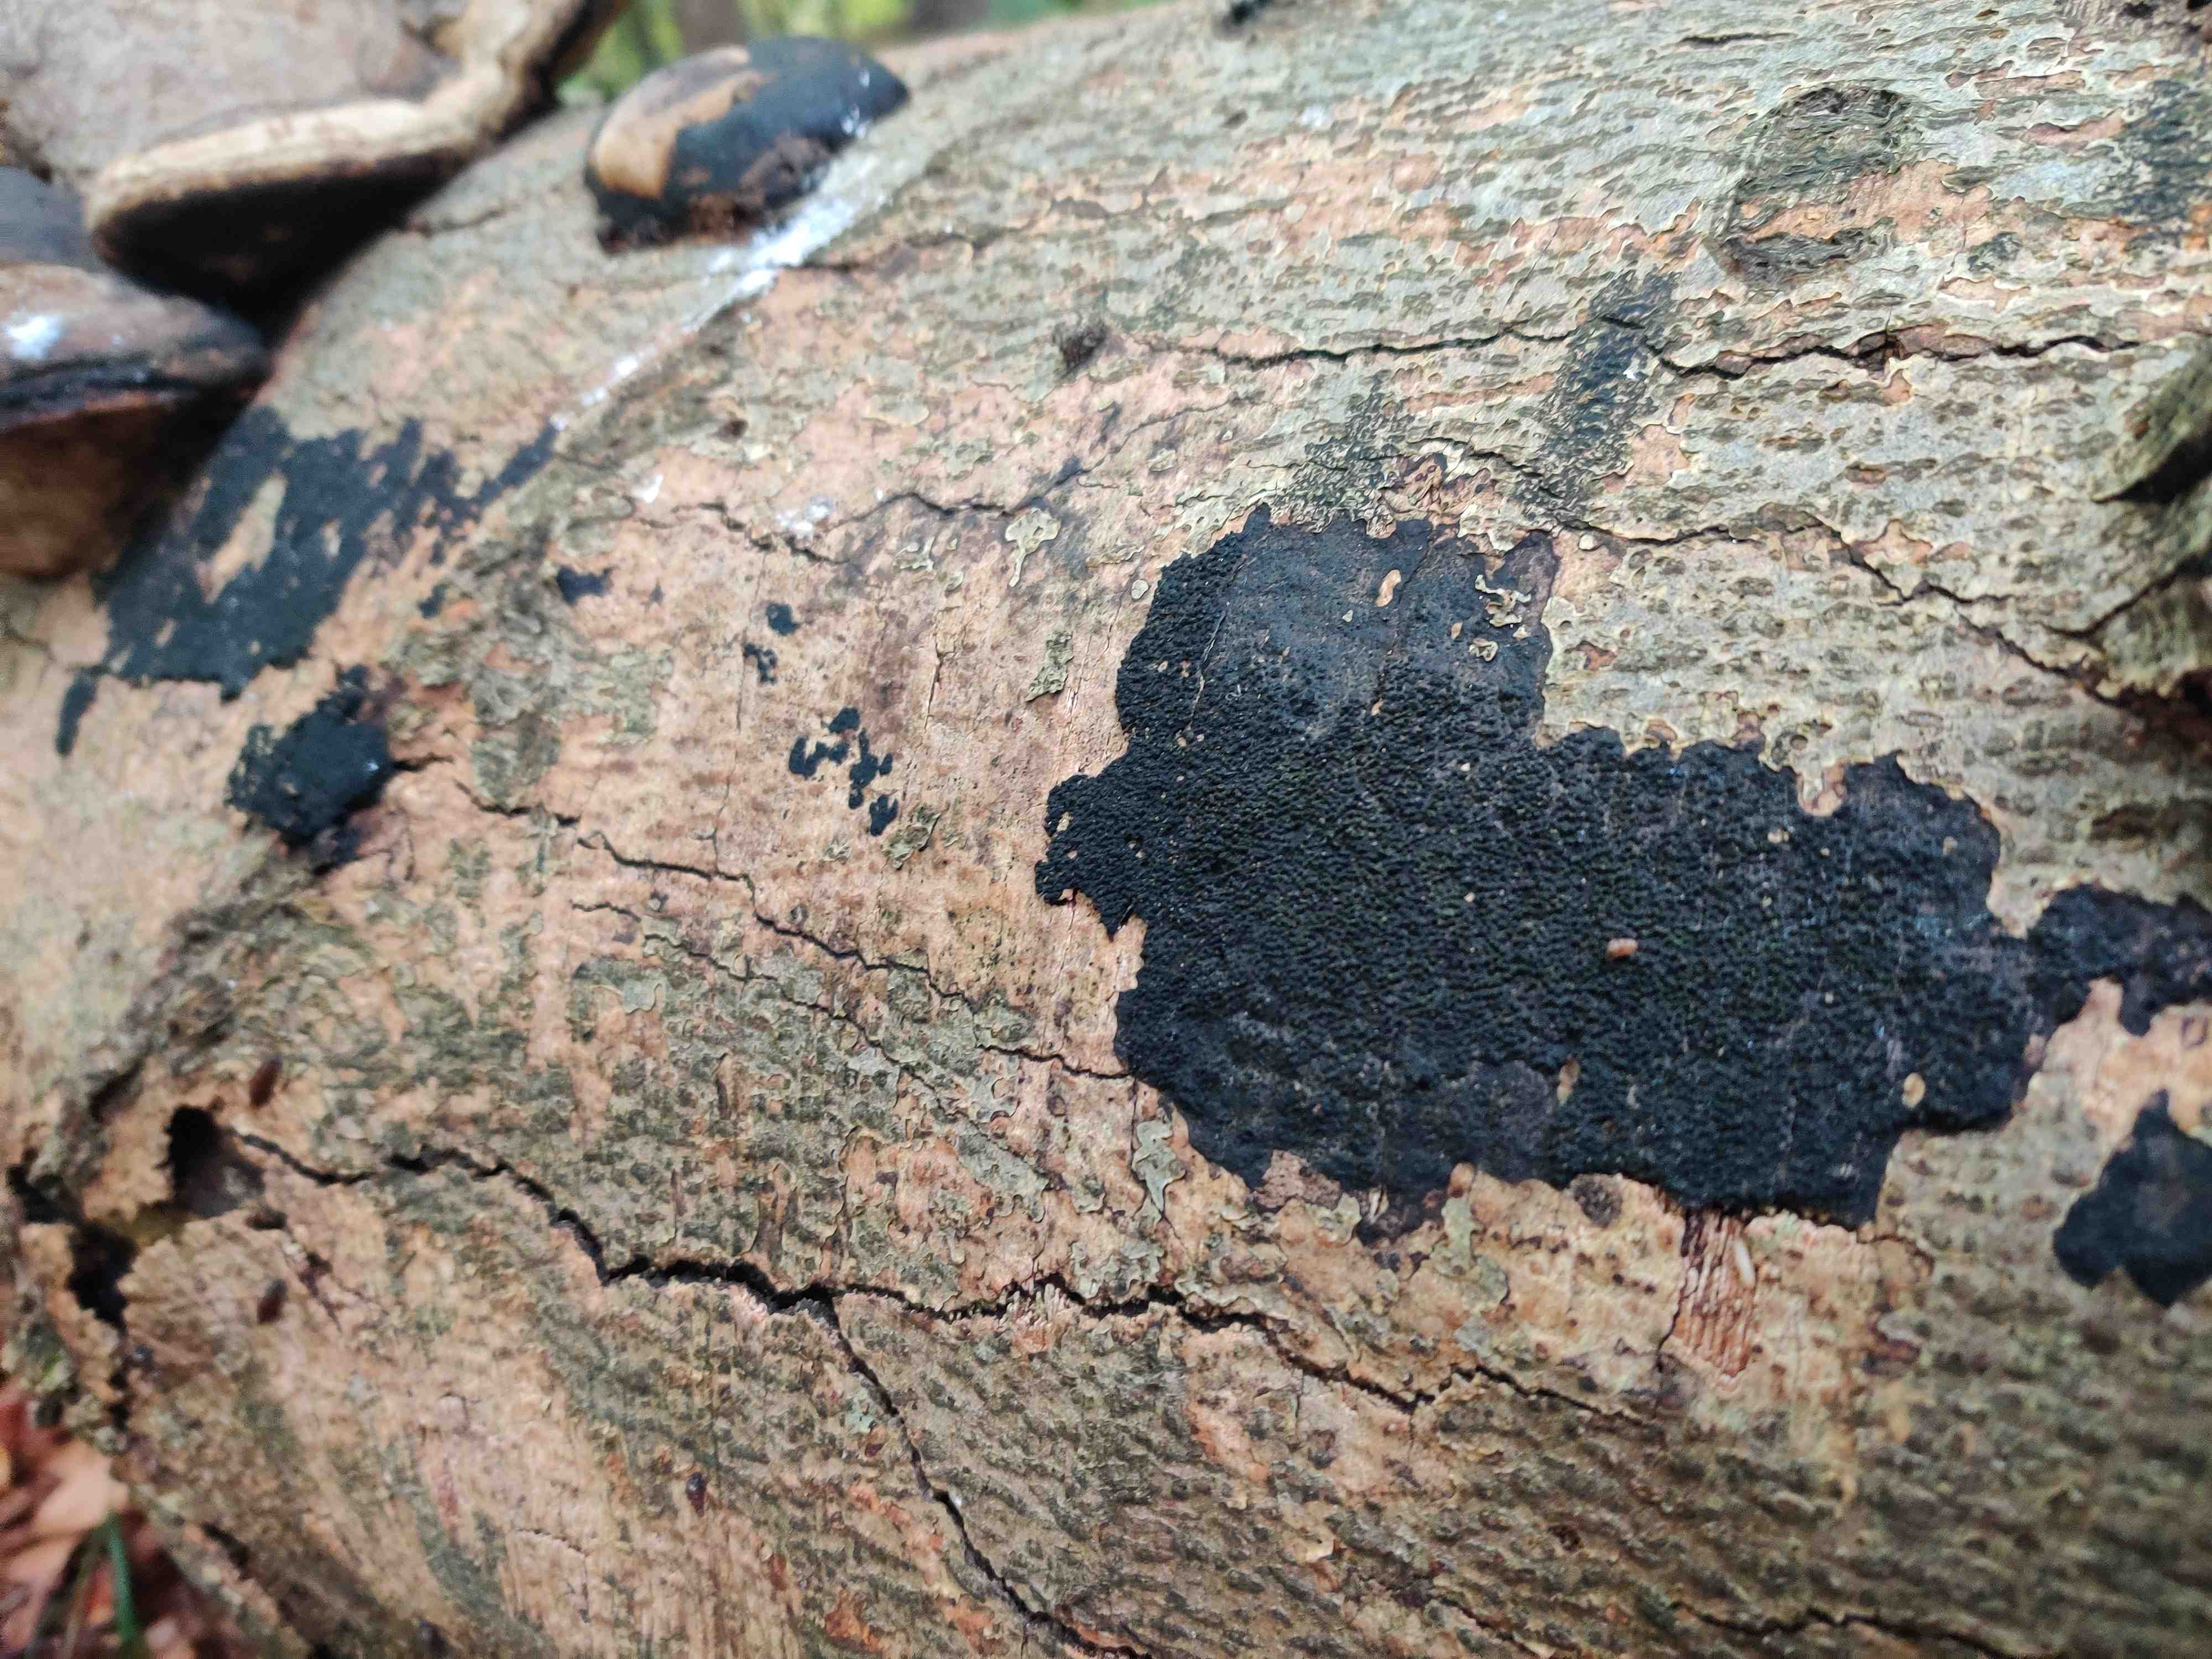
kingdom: Fungi
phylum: Ascomycota
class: Sordariomycetes
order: Xylariales
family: Diatrypaceae
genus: Eutypa
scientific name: Eutypa spinosa
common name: grov kulskorpe
